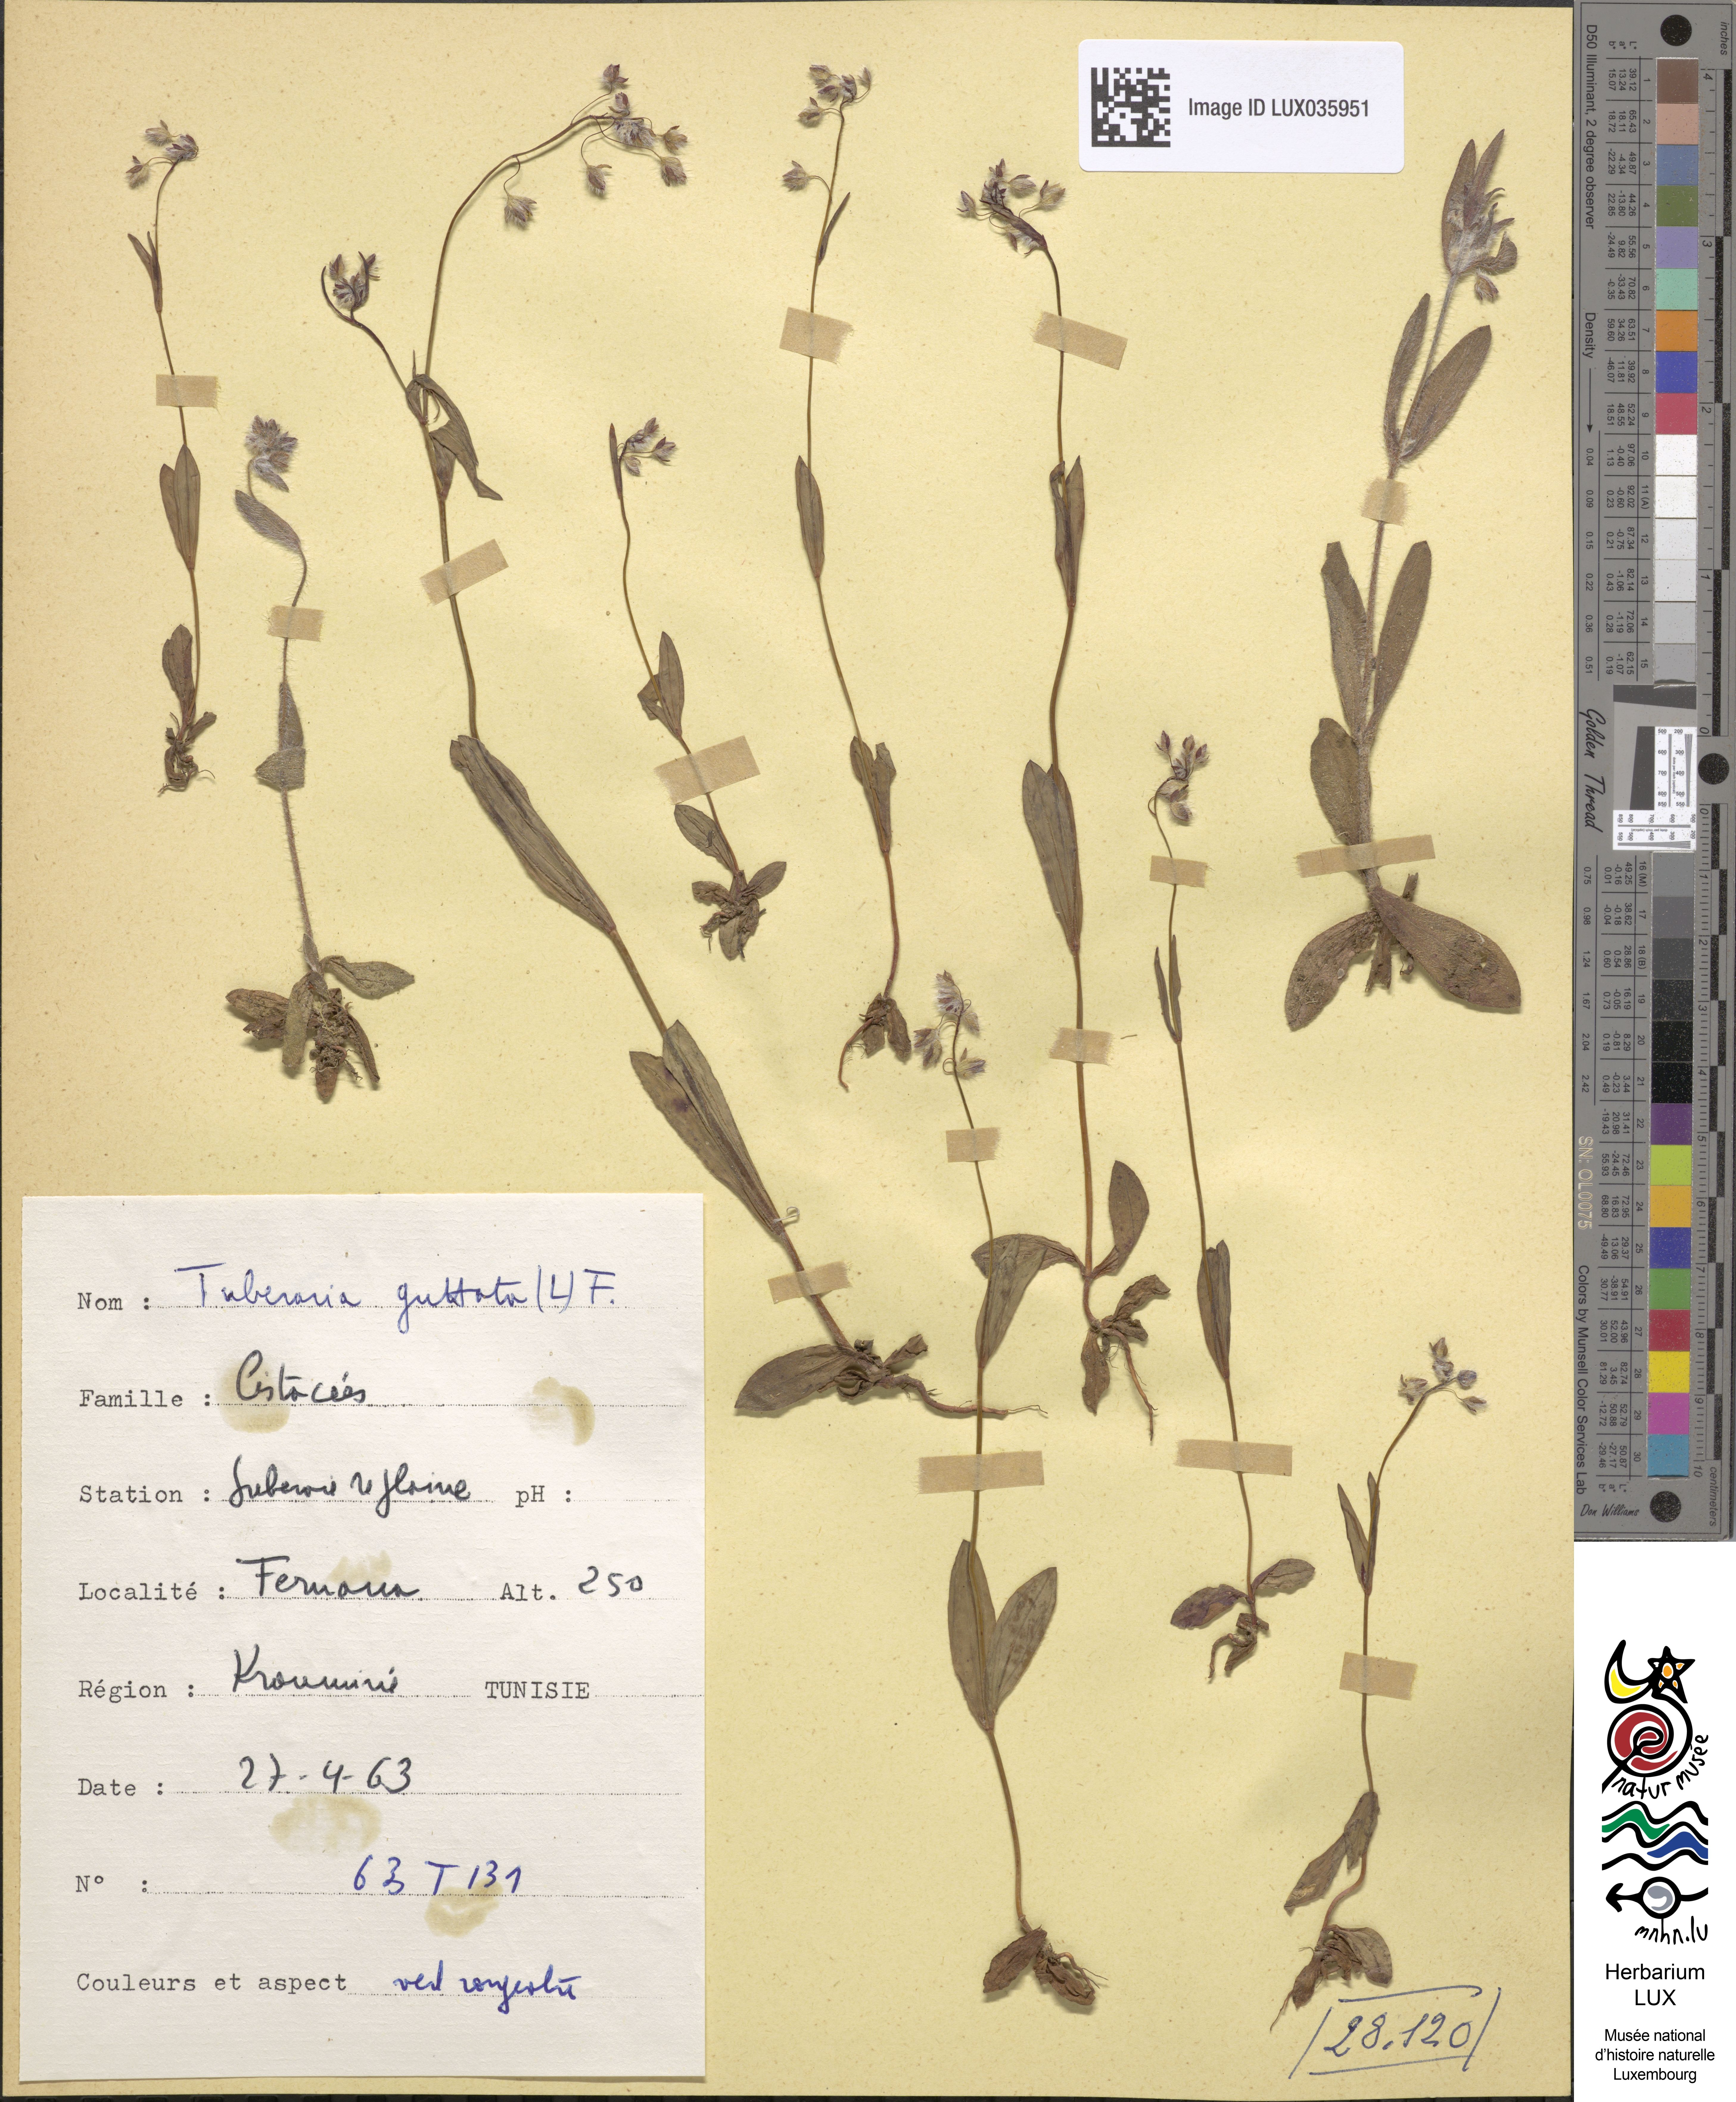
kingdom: Plantae
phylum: Tracheophyta
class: Magnoliopsida
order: Malvales
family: Cistaceae
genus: Tuberaria
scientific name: Tuberaria guttata
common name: Spotted rock-rose
